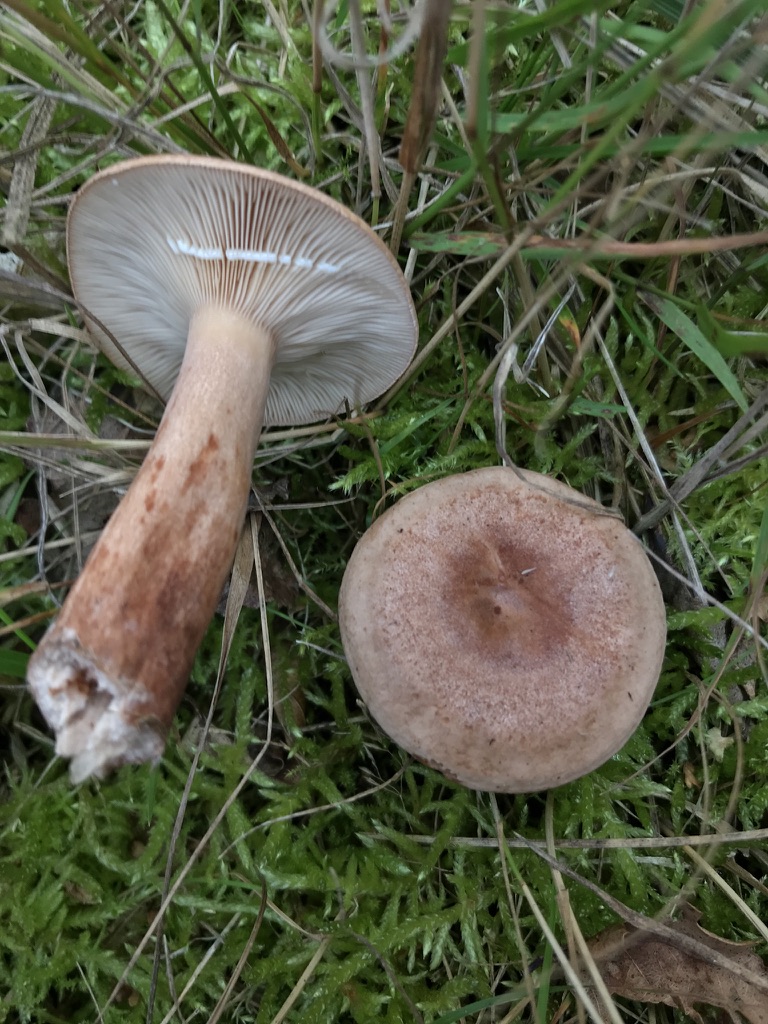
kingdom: Fungi
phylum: Basidiomycota
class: Agaricomycetes
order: Russulales
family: Russulaceae
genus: Lactarius
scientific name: Lactarius quietus
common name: ege-mælkehat
